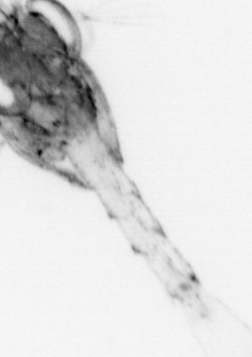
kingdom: Animalia
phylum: Arthropoda
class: Malacostraca
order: Decapoda
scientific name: Decapoda
